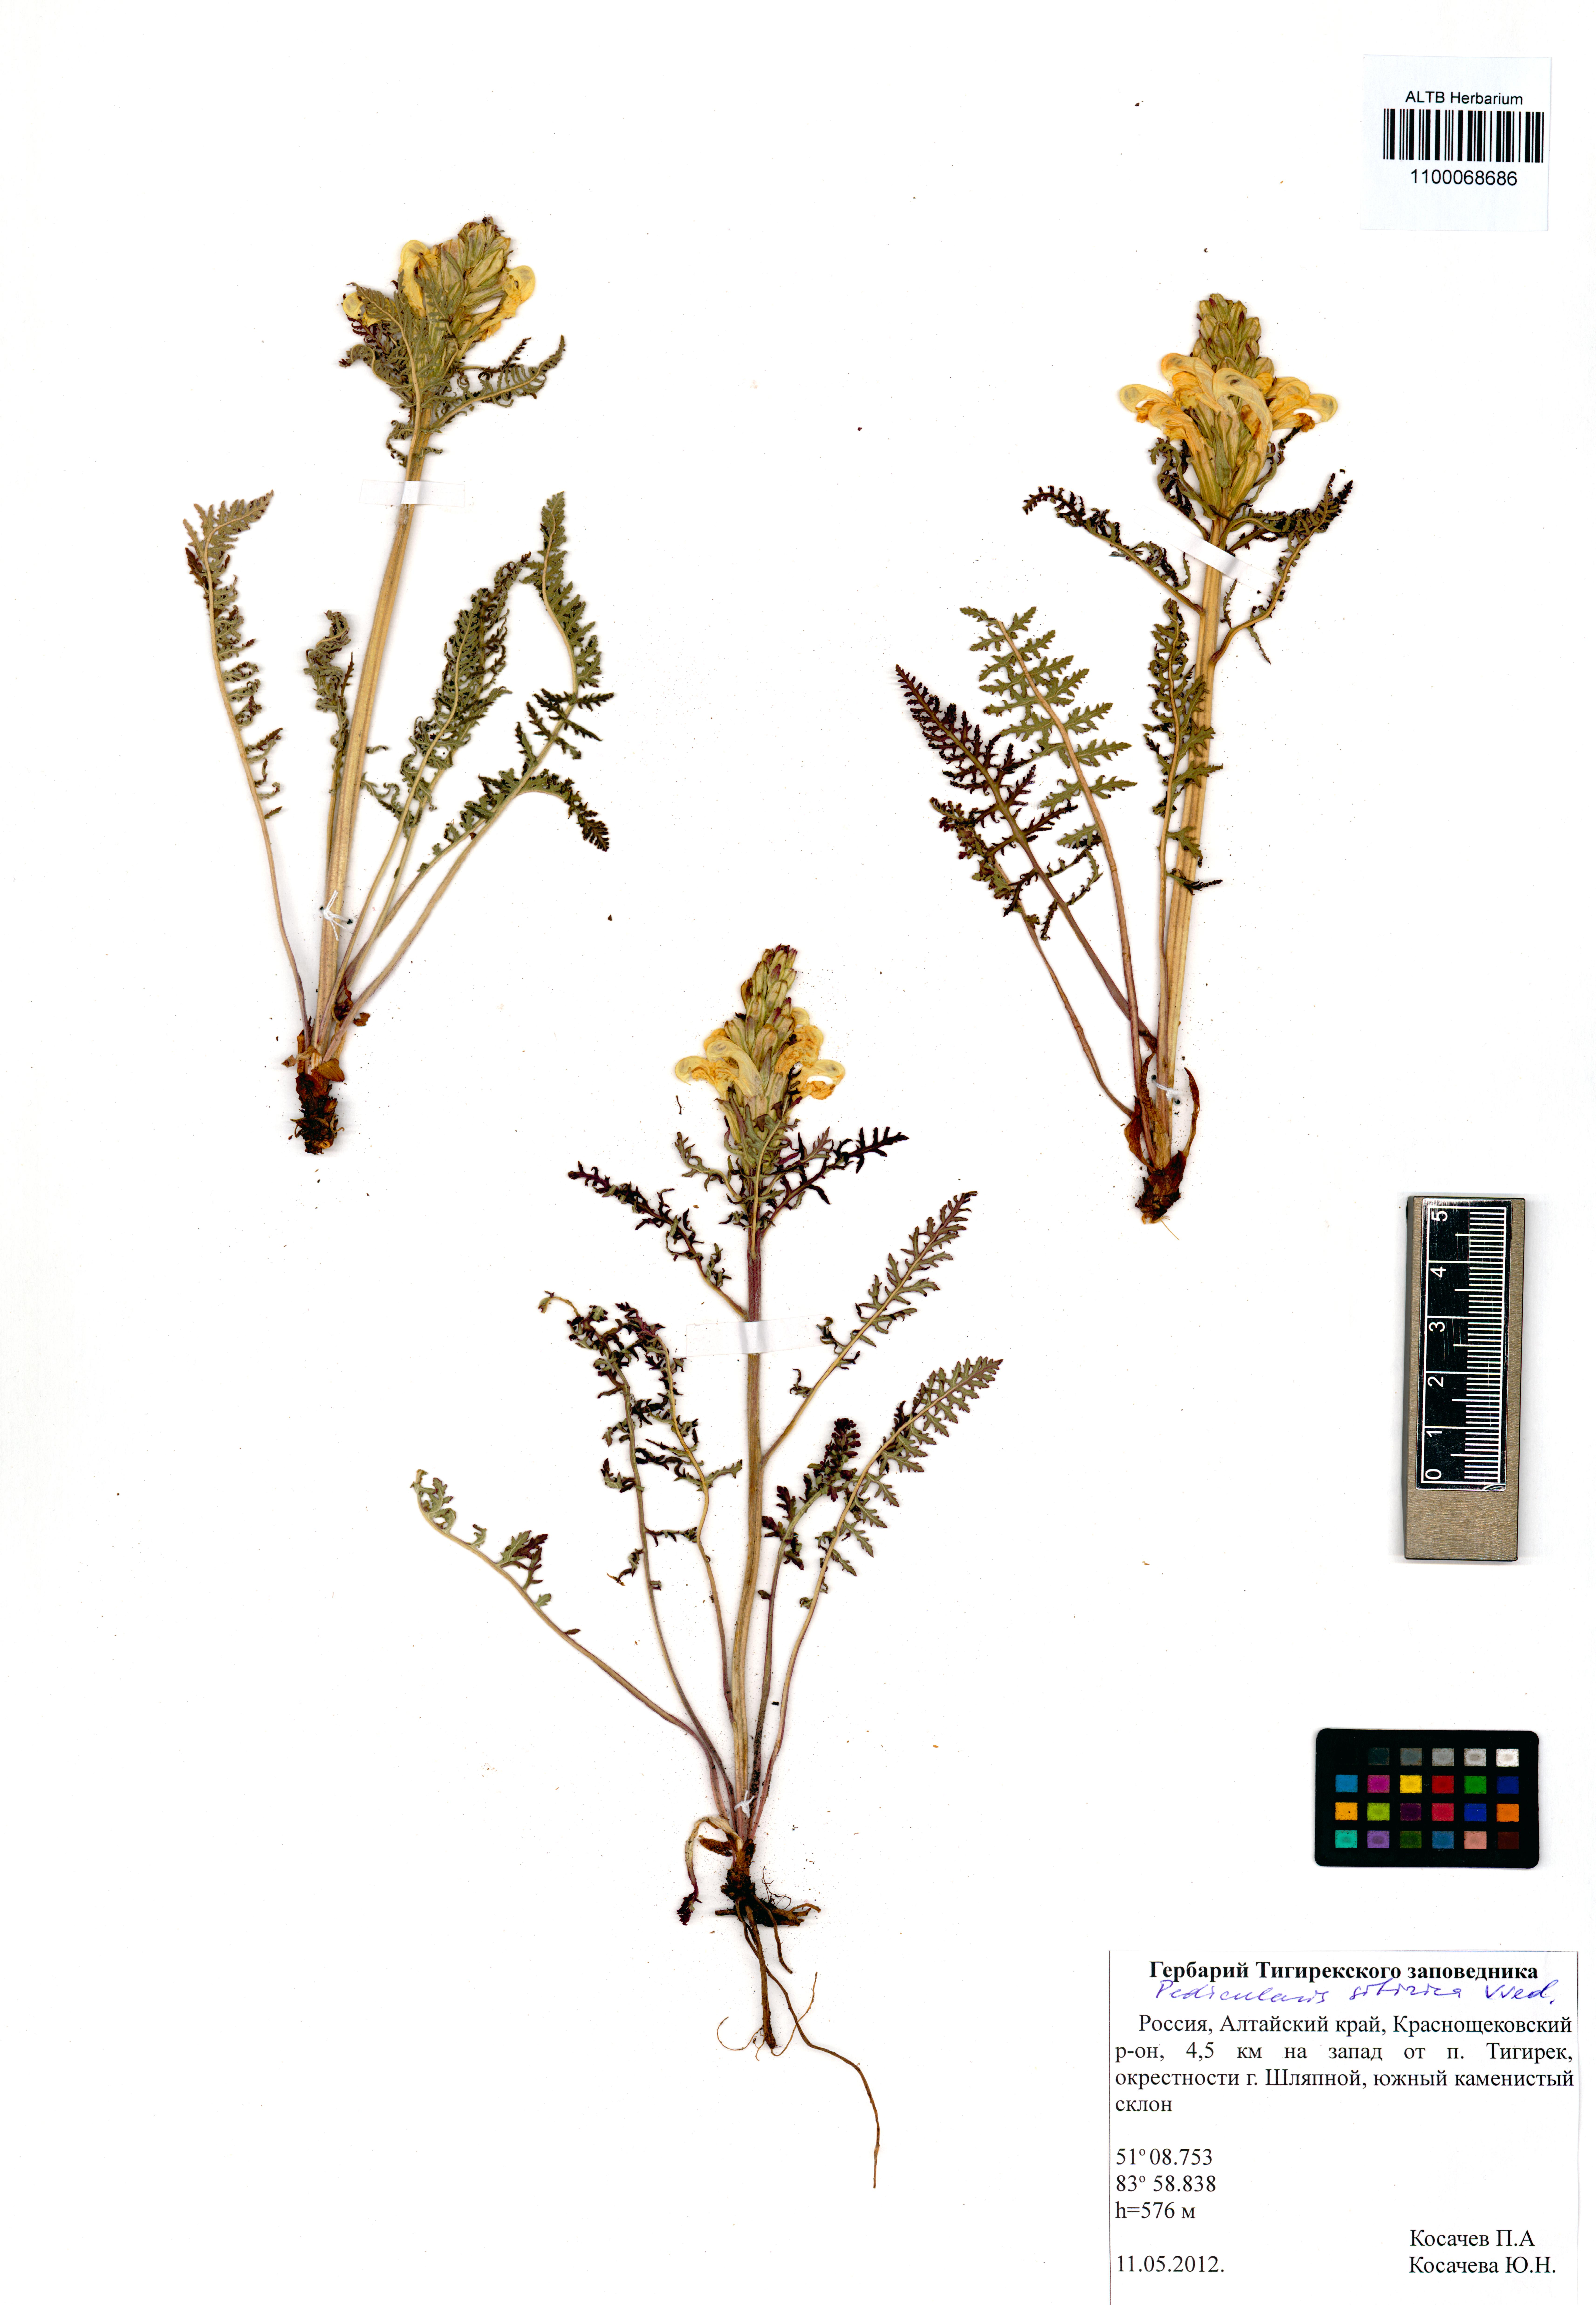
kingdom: Plantae
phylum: Tracheophyta
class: Magnoliopsida
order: Lamiales
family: Orobanchaceae
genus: Pedicularis
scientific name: Pedicularis sibirica
